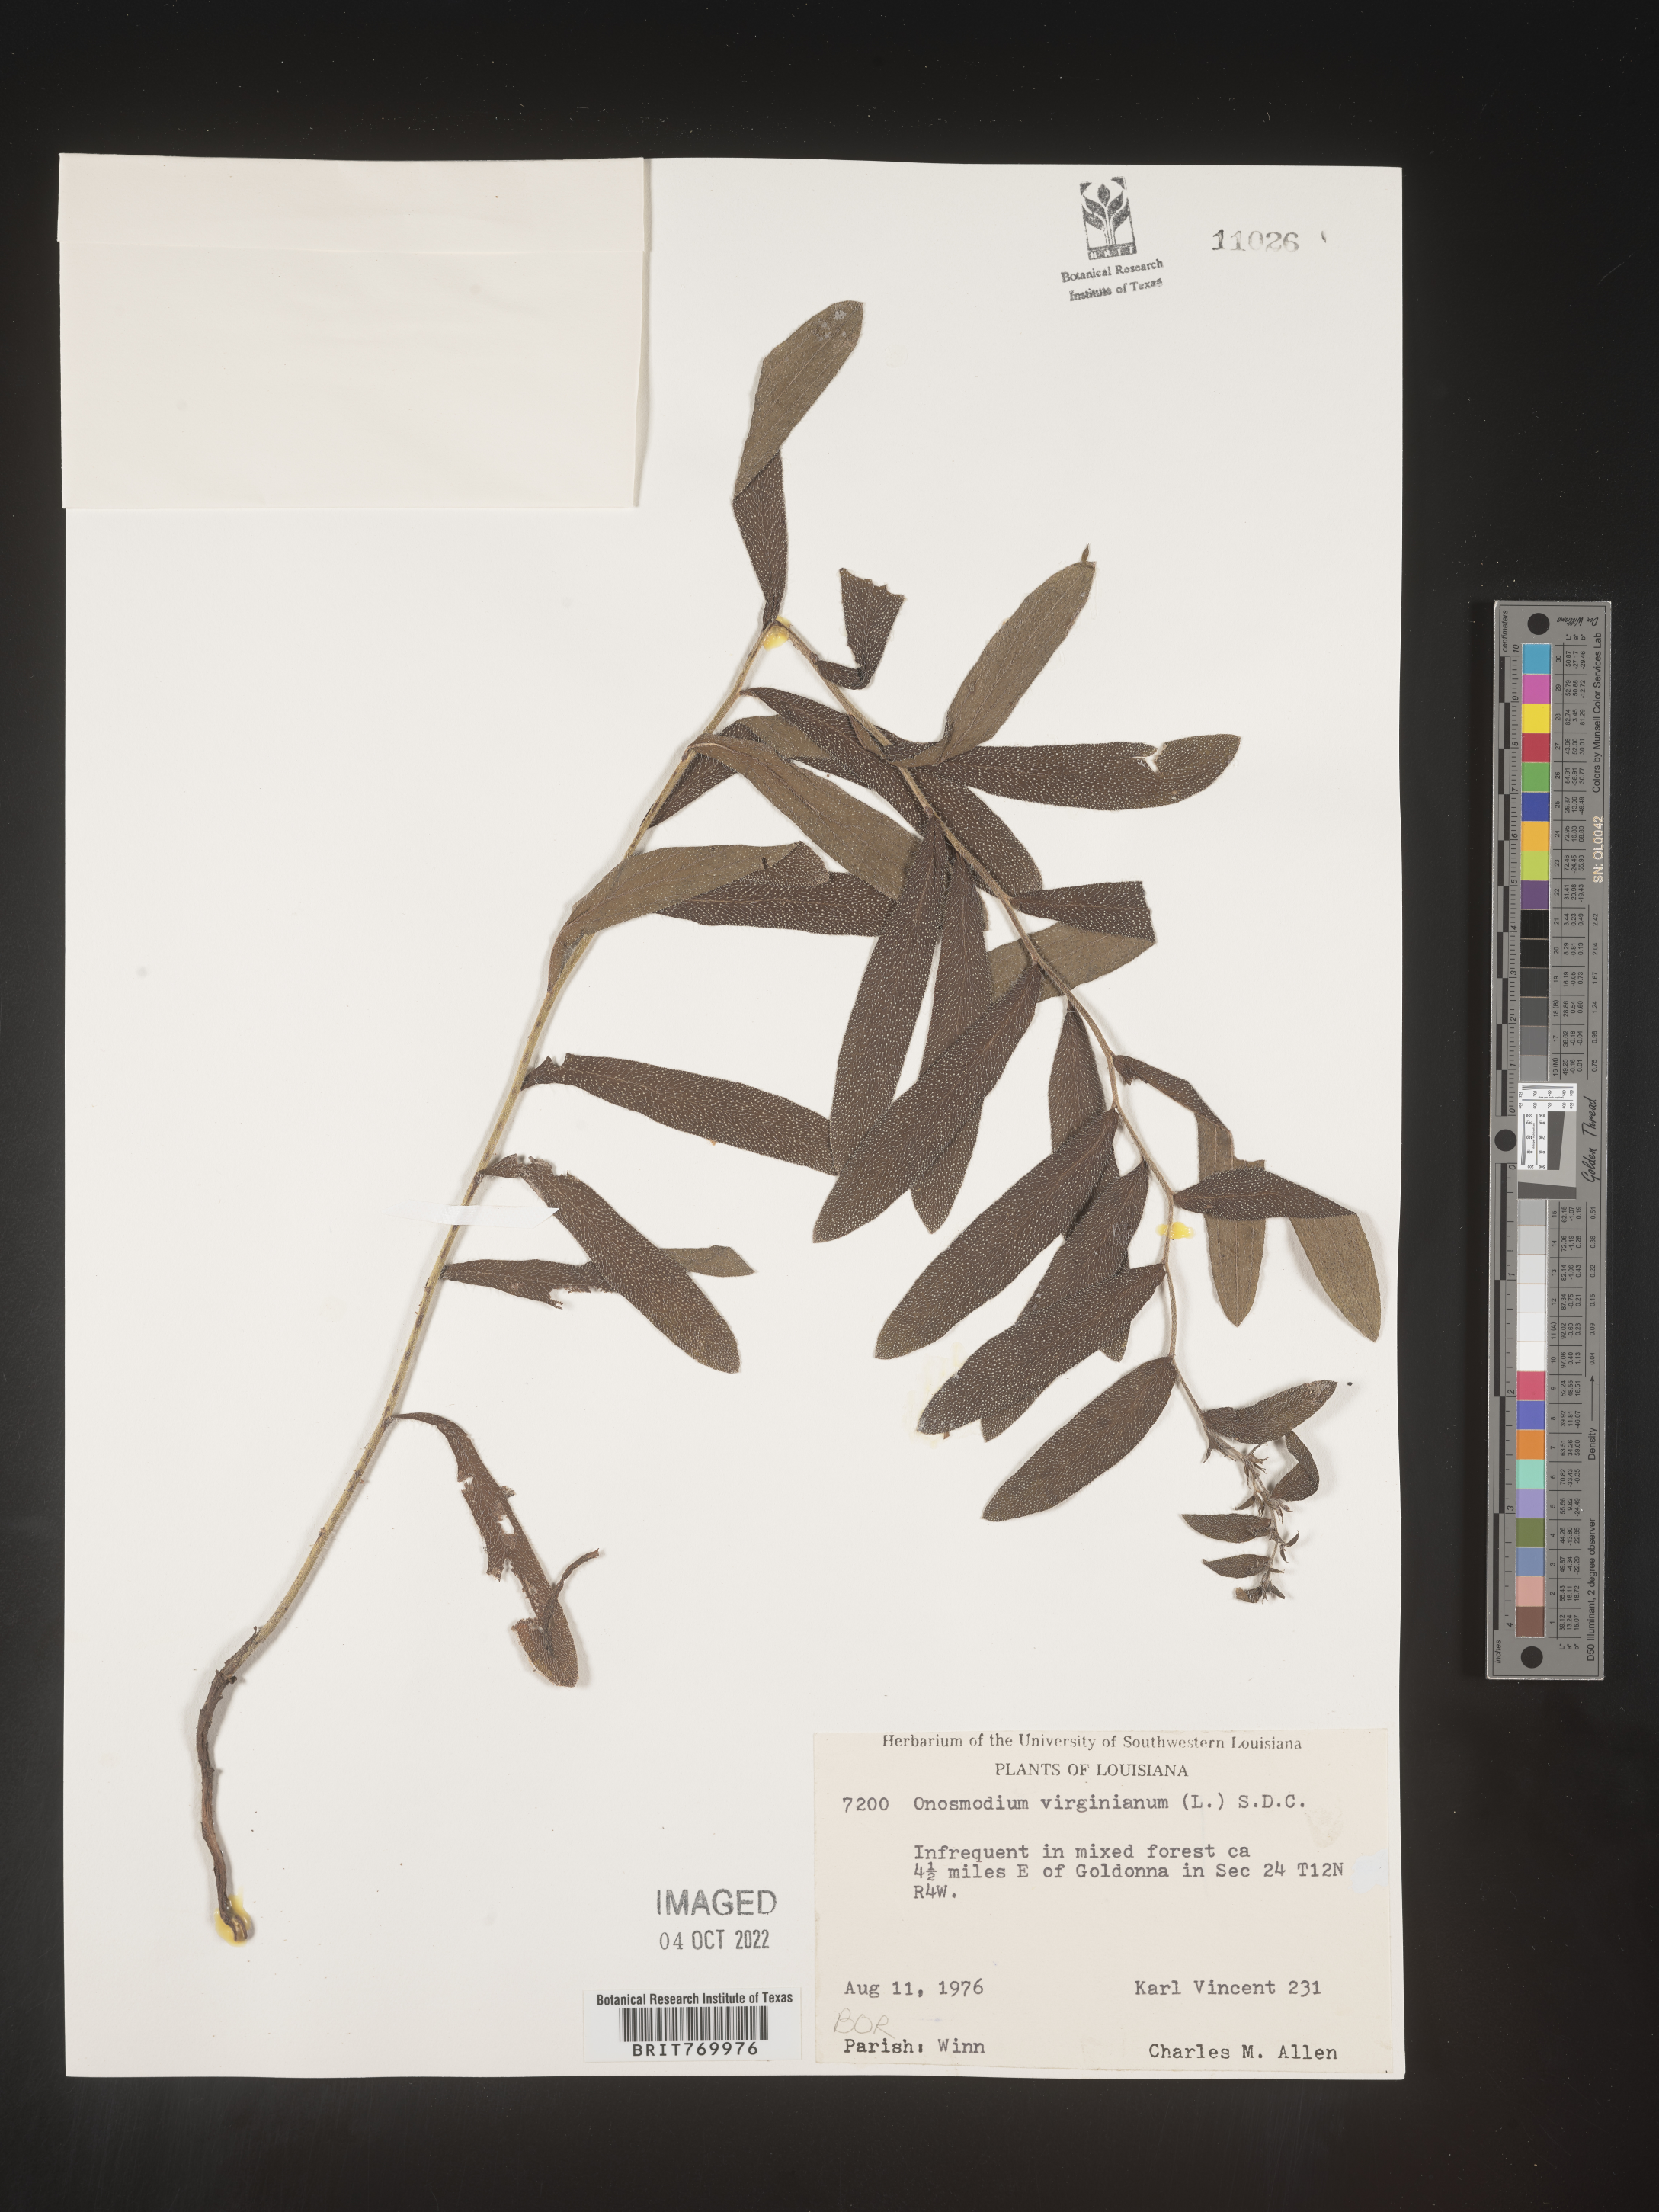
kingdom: Plantae
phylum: Tracheophyta
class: Magnoliopsida
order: Boraginales
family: Boraginaceae
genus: Lithospermum
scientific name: Lithospermum virginianum
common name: Eastern false gromwell
